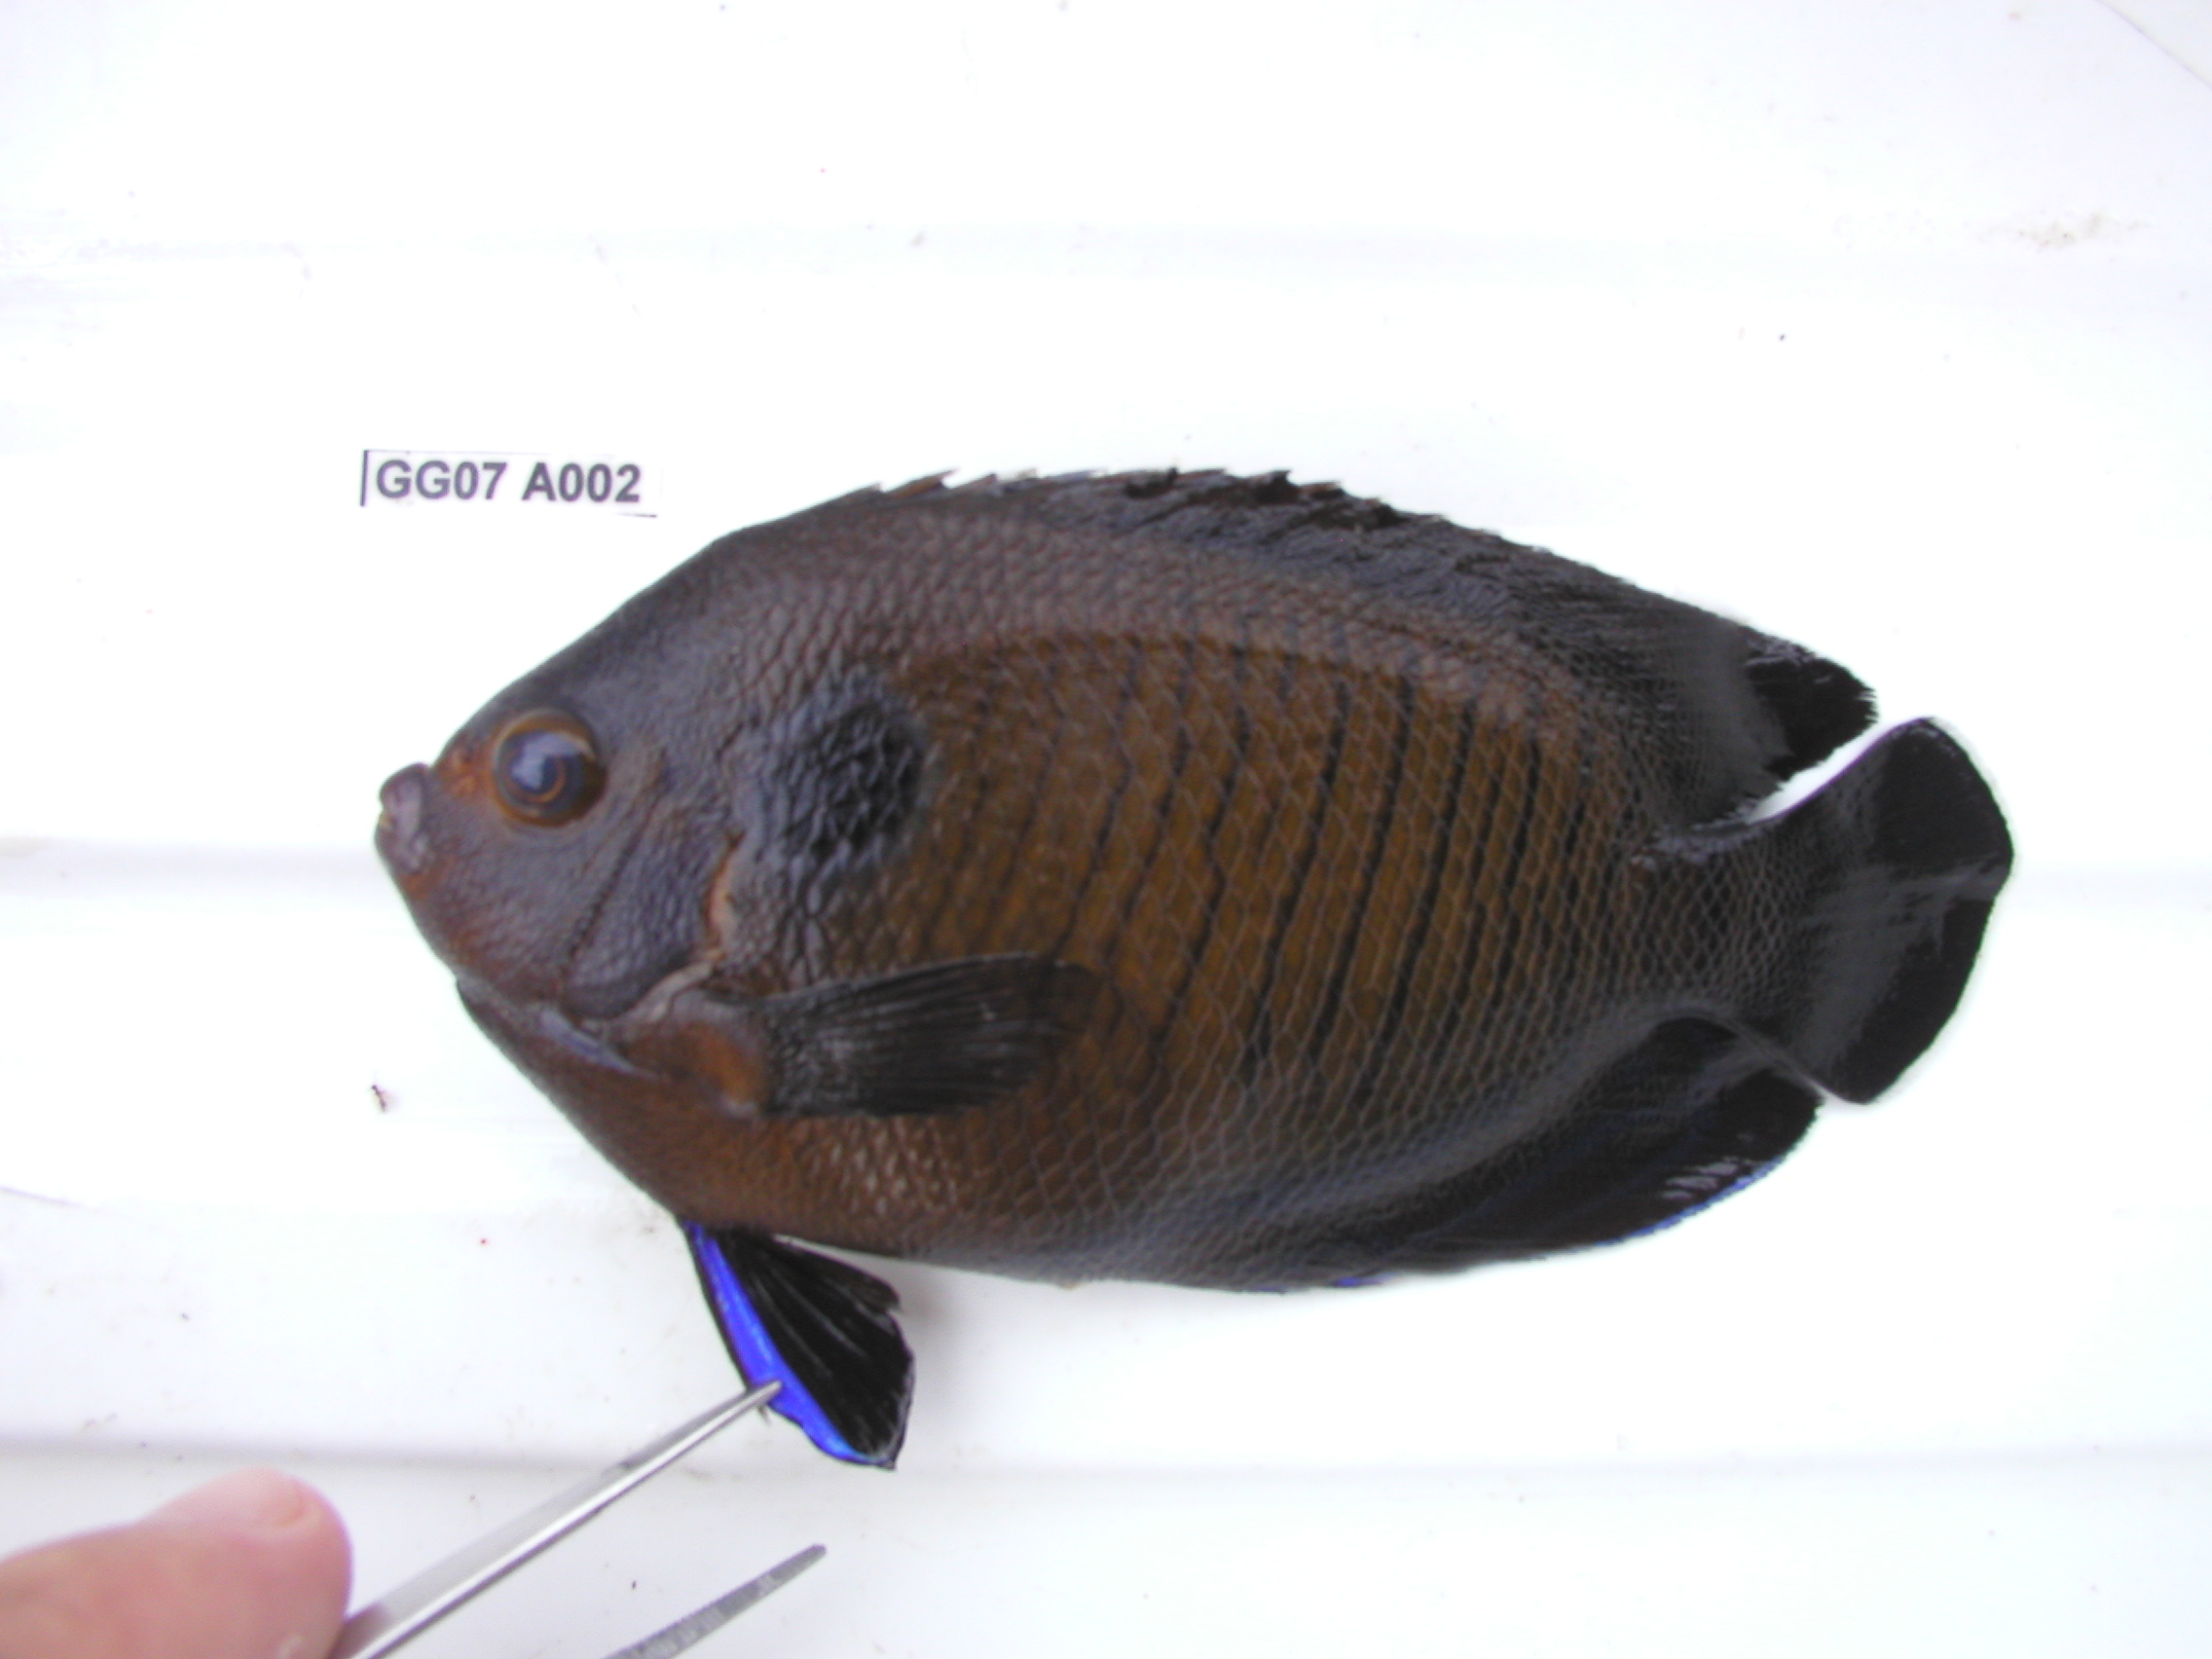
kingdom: Animalia
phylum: Chordata
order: Perciformes
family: Pomacanthidae
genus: Centropyge
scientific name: Centropyge multispinis
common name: Many-spined angelfish
